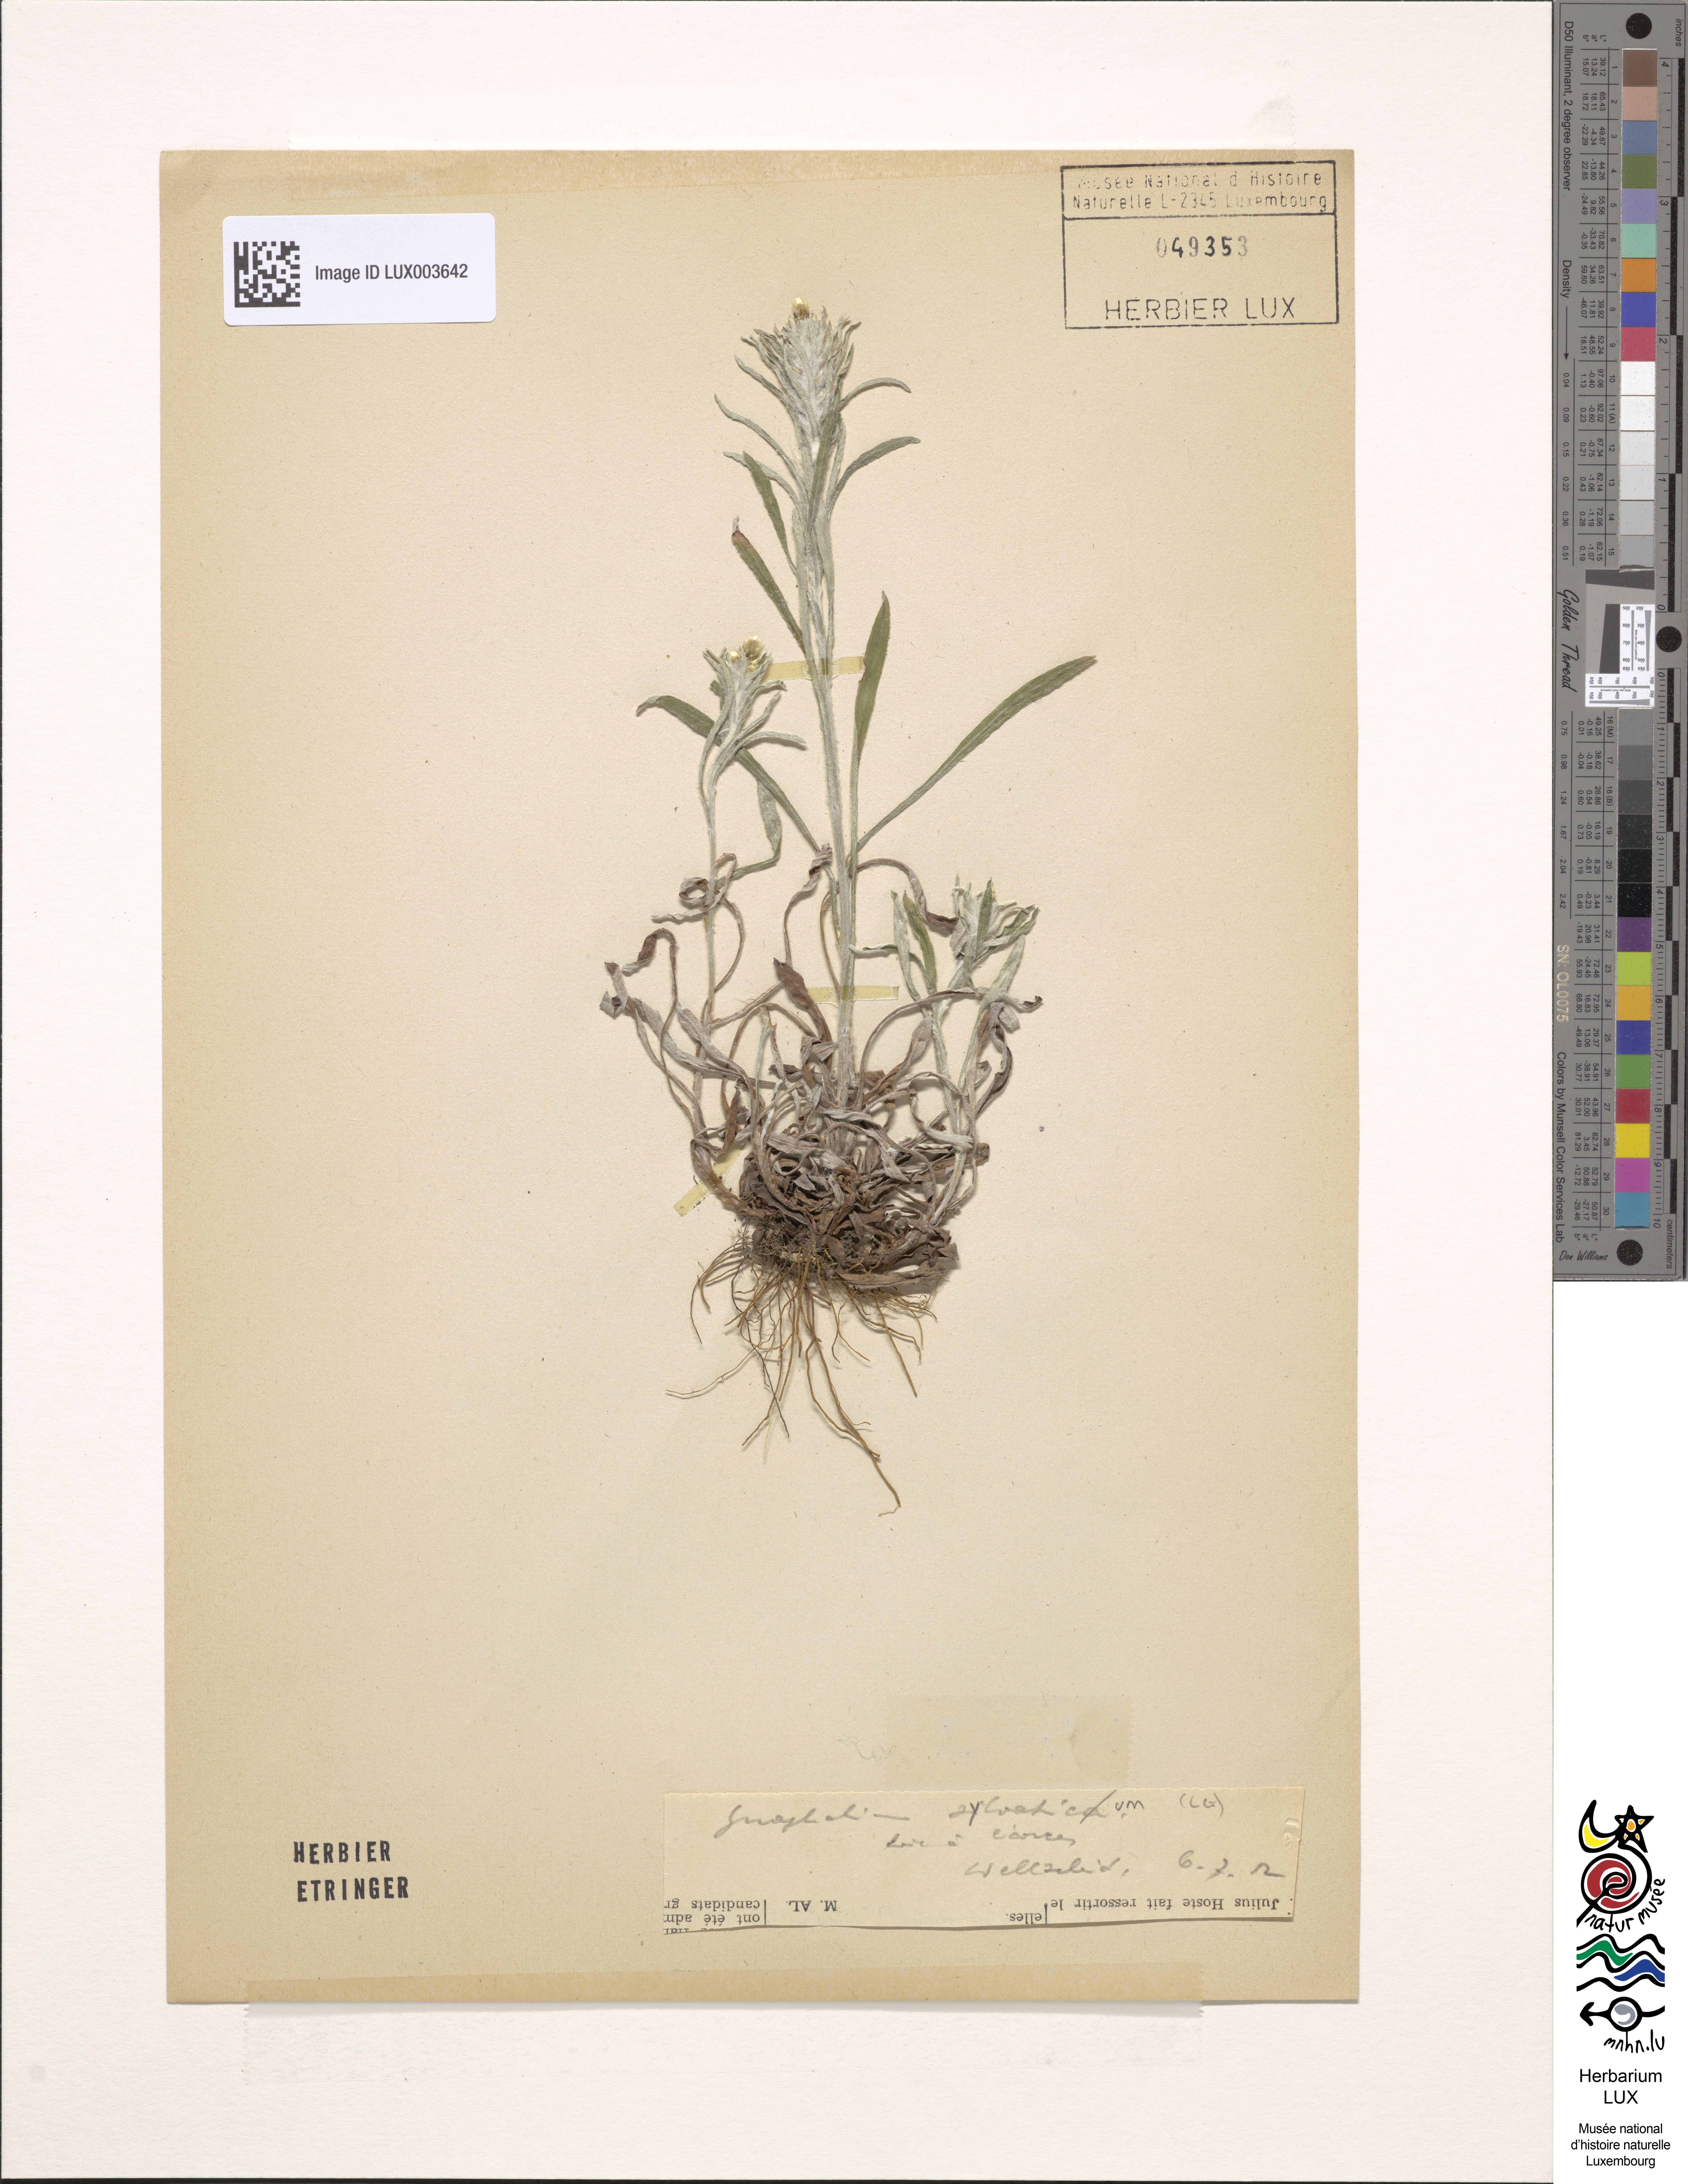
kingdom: Plantae
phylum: Tracheophyta
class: Magnoliopsida
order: Asterales
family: Asteraceae
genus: Omalotheca
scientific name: Omalotheca sylvatica
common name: Heath cudweed
